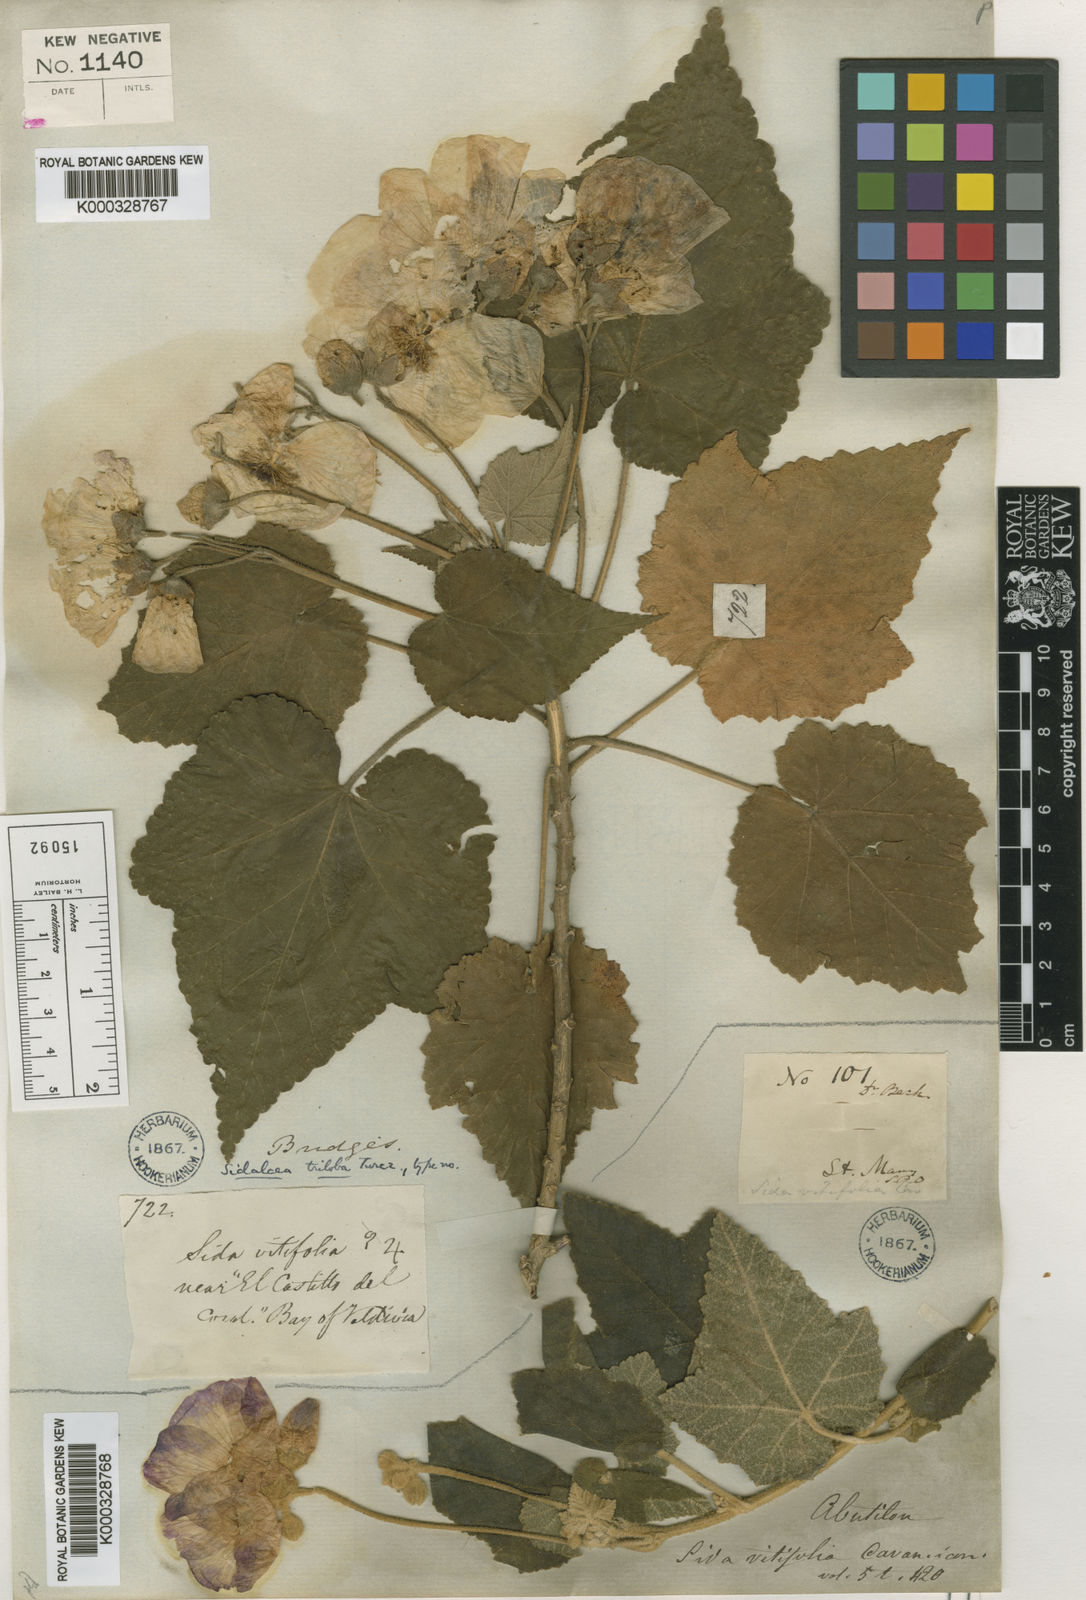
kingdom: Plantae
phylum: Tracheophyta
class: Magnoliopsida
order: Malvales
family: Malvaceae
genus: Corynabutilon
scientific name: Corynabutilon vitifolium
